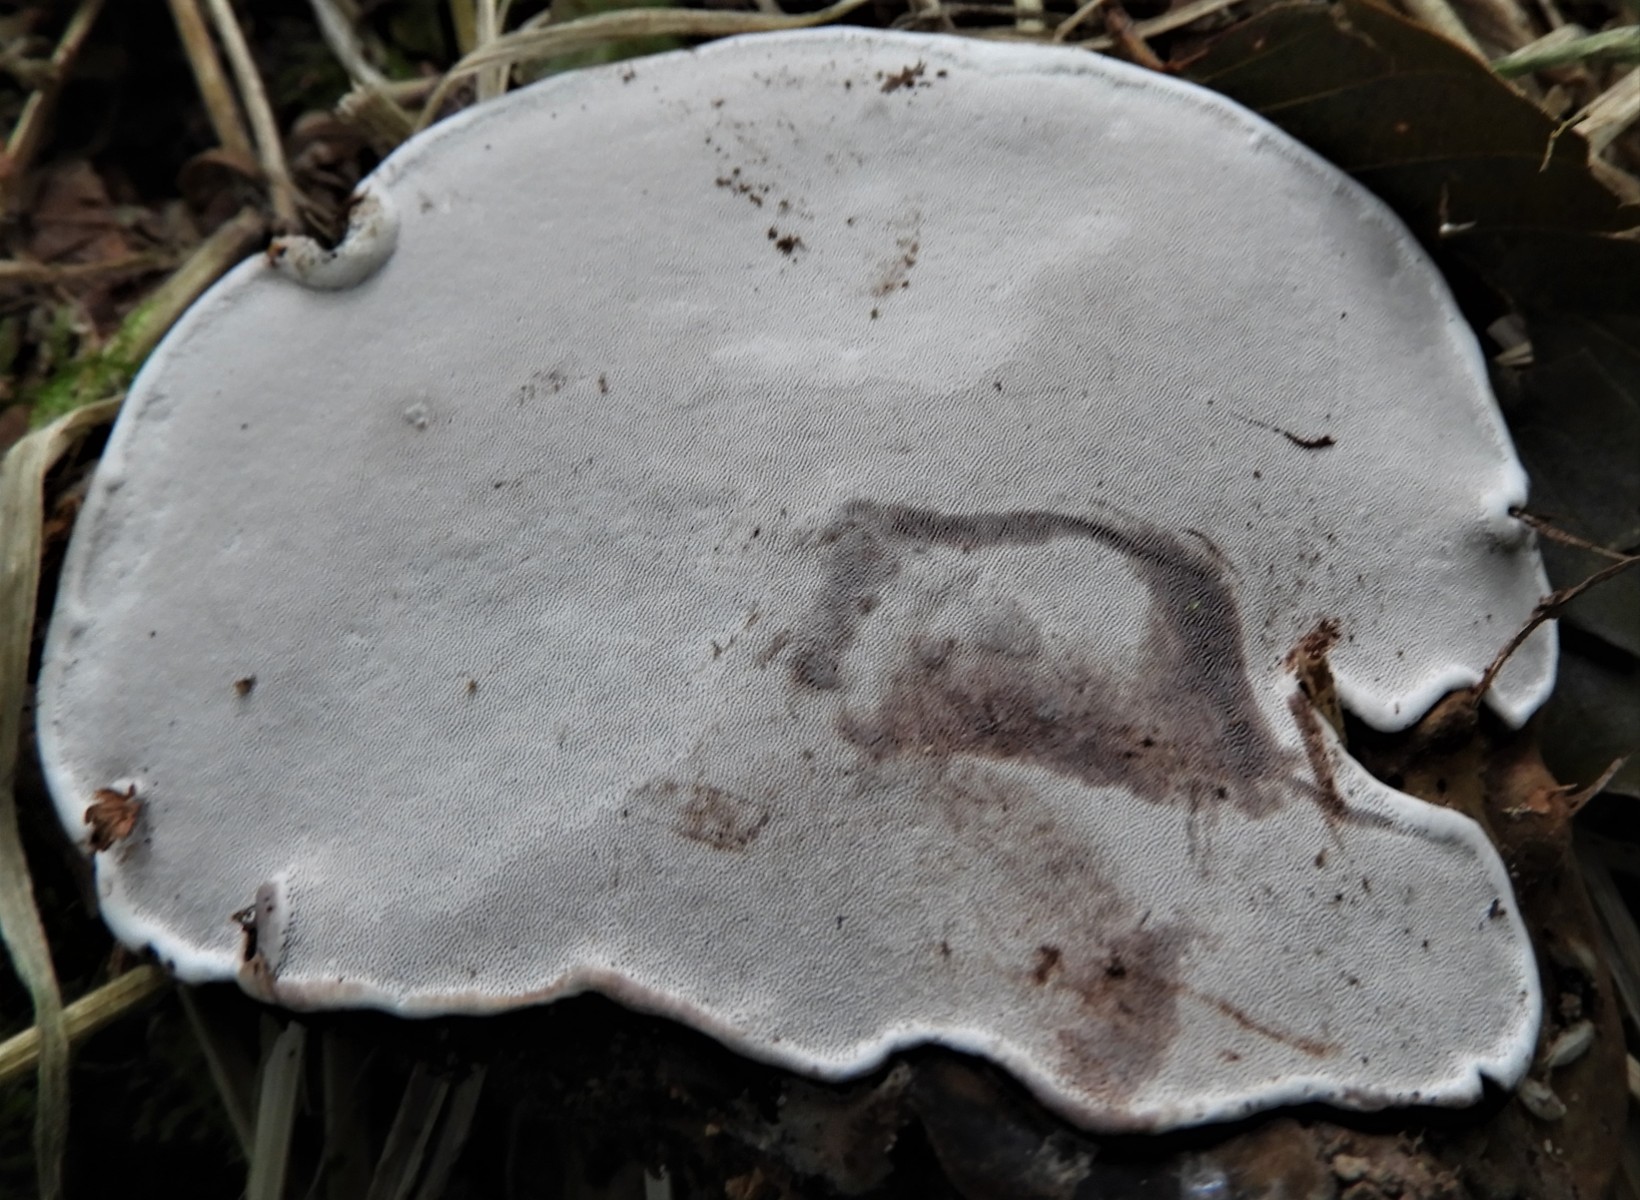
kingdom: Fungi
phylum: Basidiomycota
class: Agaricomycetes
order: Polyporales
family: Polyporaceae
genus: Ganoderma
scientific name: Ganoderma applanatum
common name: flad lakporesvamp
